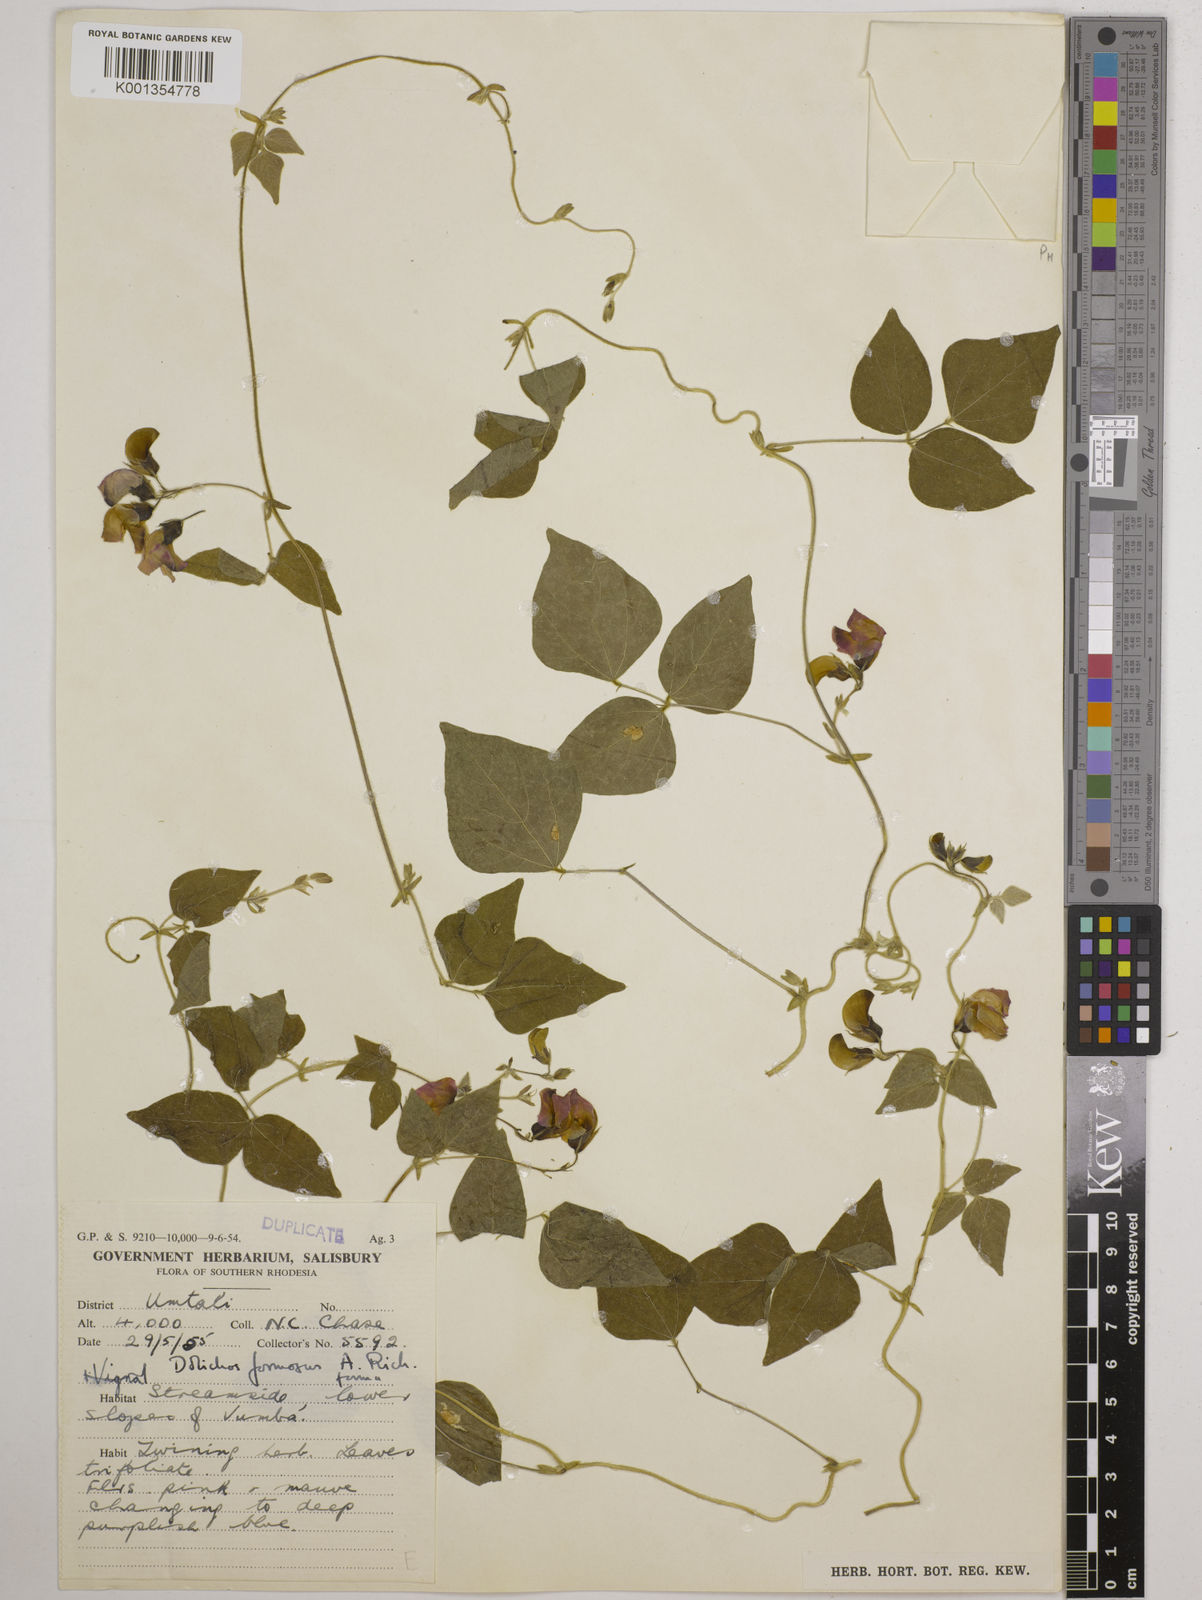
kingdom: Plantae
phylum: Tracheophyta
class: Magnoliopsida
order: Fabales
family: Fabaceae
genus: Dolichos
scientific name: Dolichos
